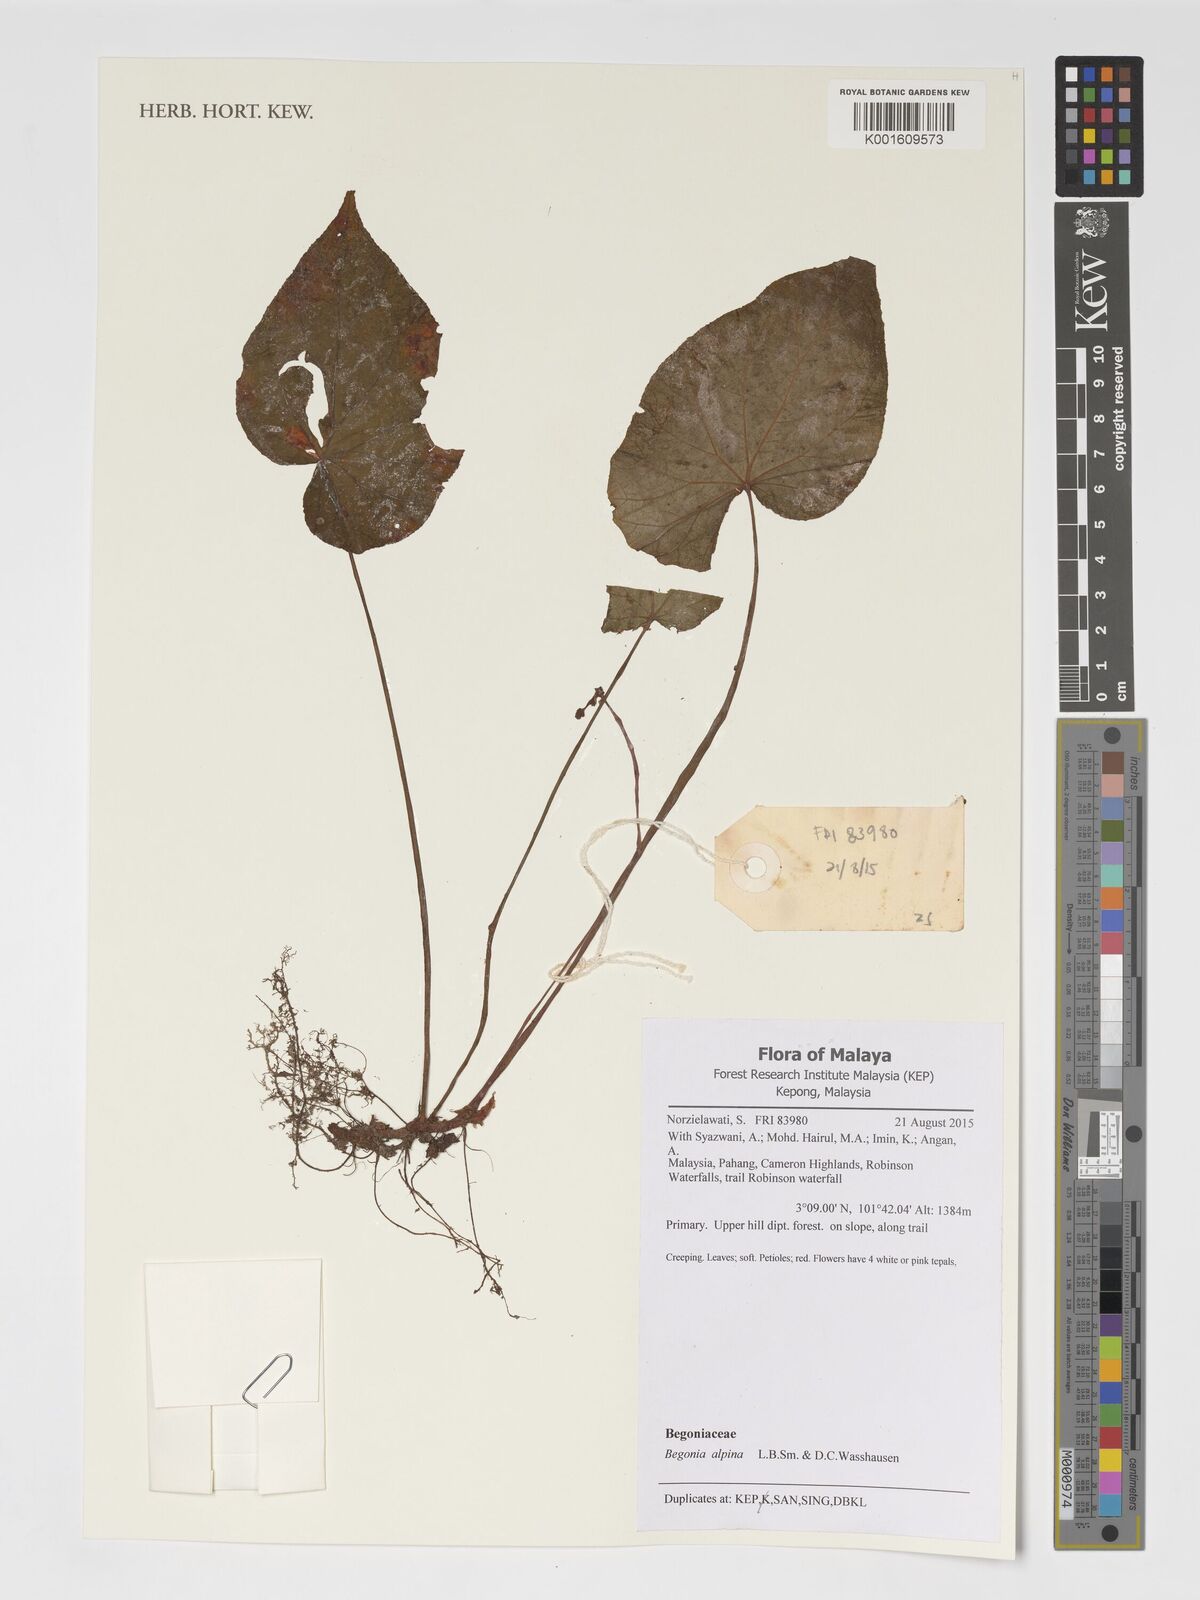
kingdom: Plantae
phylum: Tracheophyta
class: Magnoliopsida
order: Cucurbitales
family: Begoniaceae
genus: Begonia
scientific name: Begonia alpina
